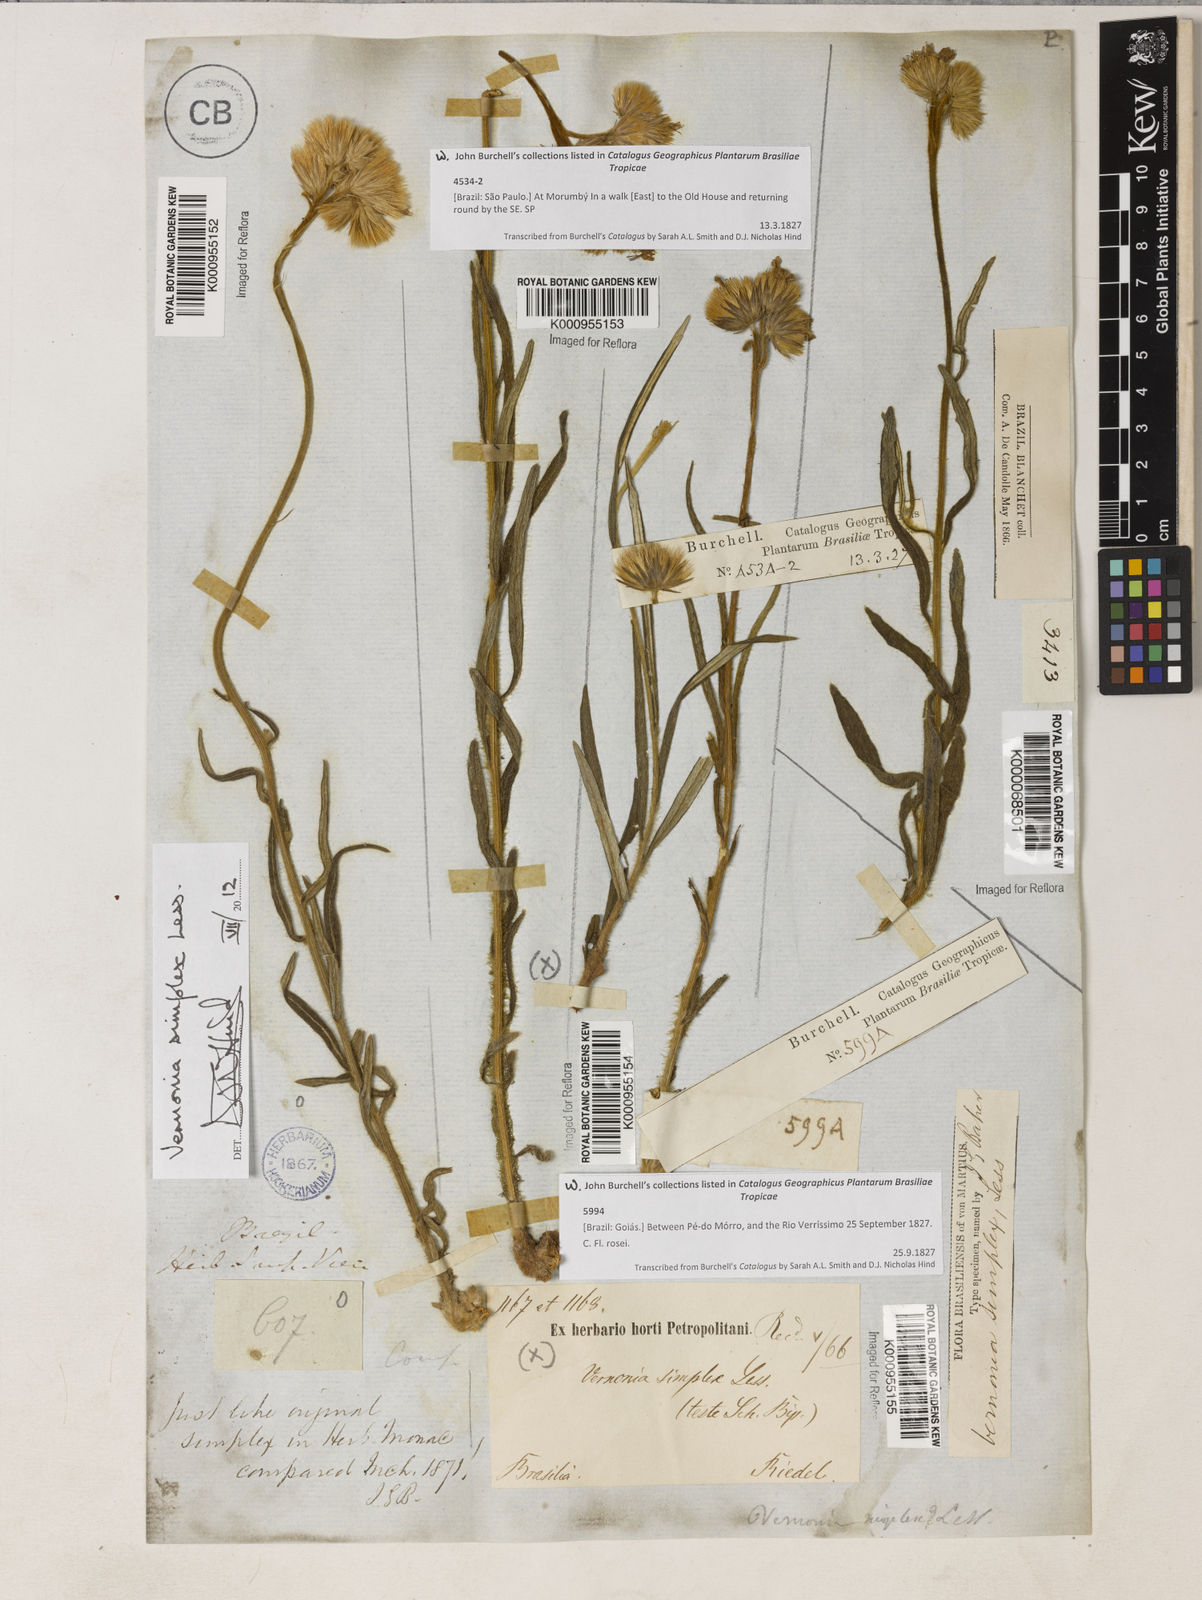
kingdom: Plantae
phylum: Tracheophyta
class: Magnoliopsida
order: Asterales
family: Asteraceae
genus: Chrysolaena
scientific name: Chrysolaena simplex
